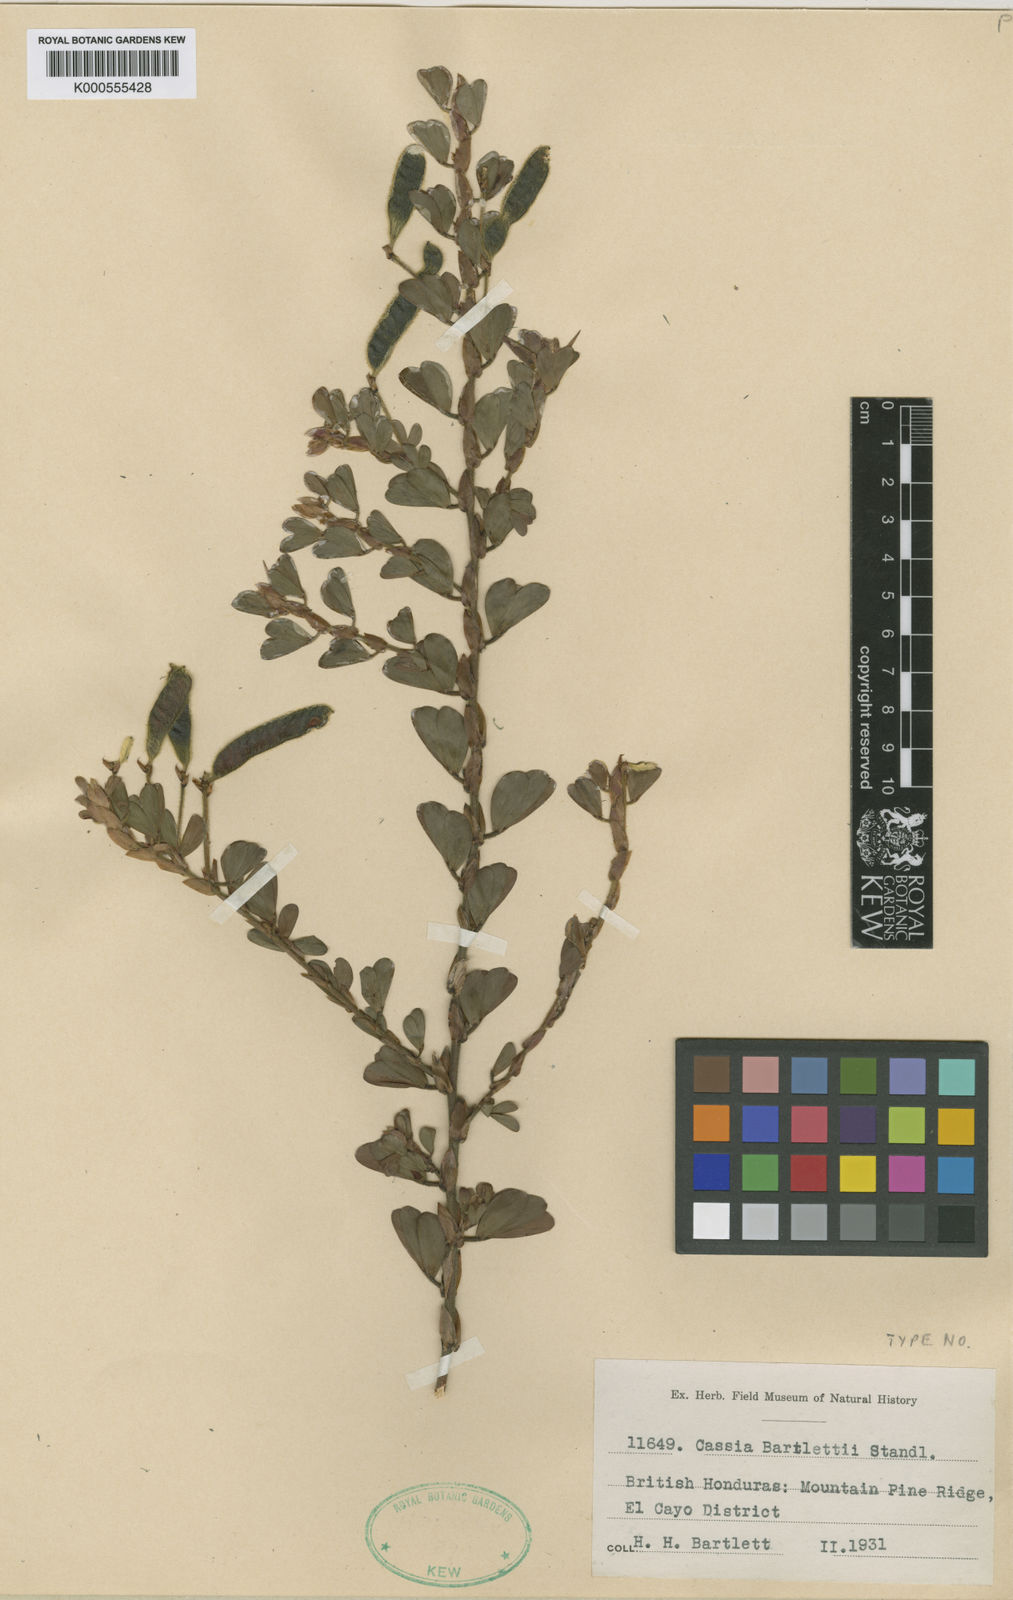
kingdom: Plantae
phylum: Tracheophyta
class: Magnoliopsida
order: Fabales
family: Fabaceae
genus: Chamaecrista
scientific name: Chamaecrista desvauxii
